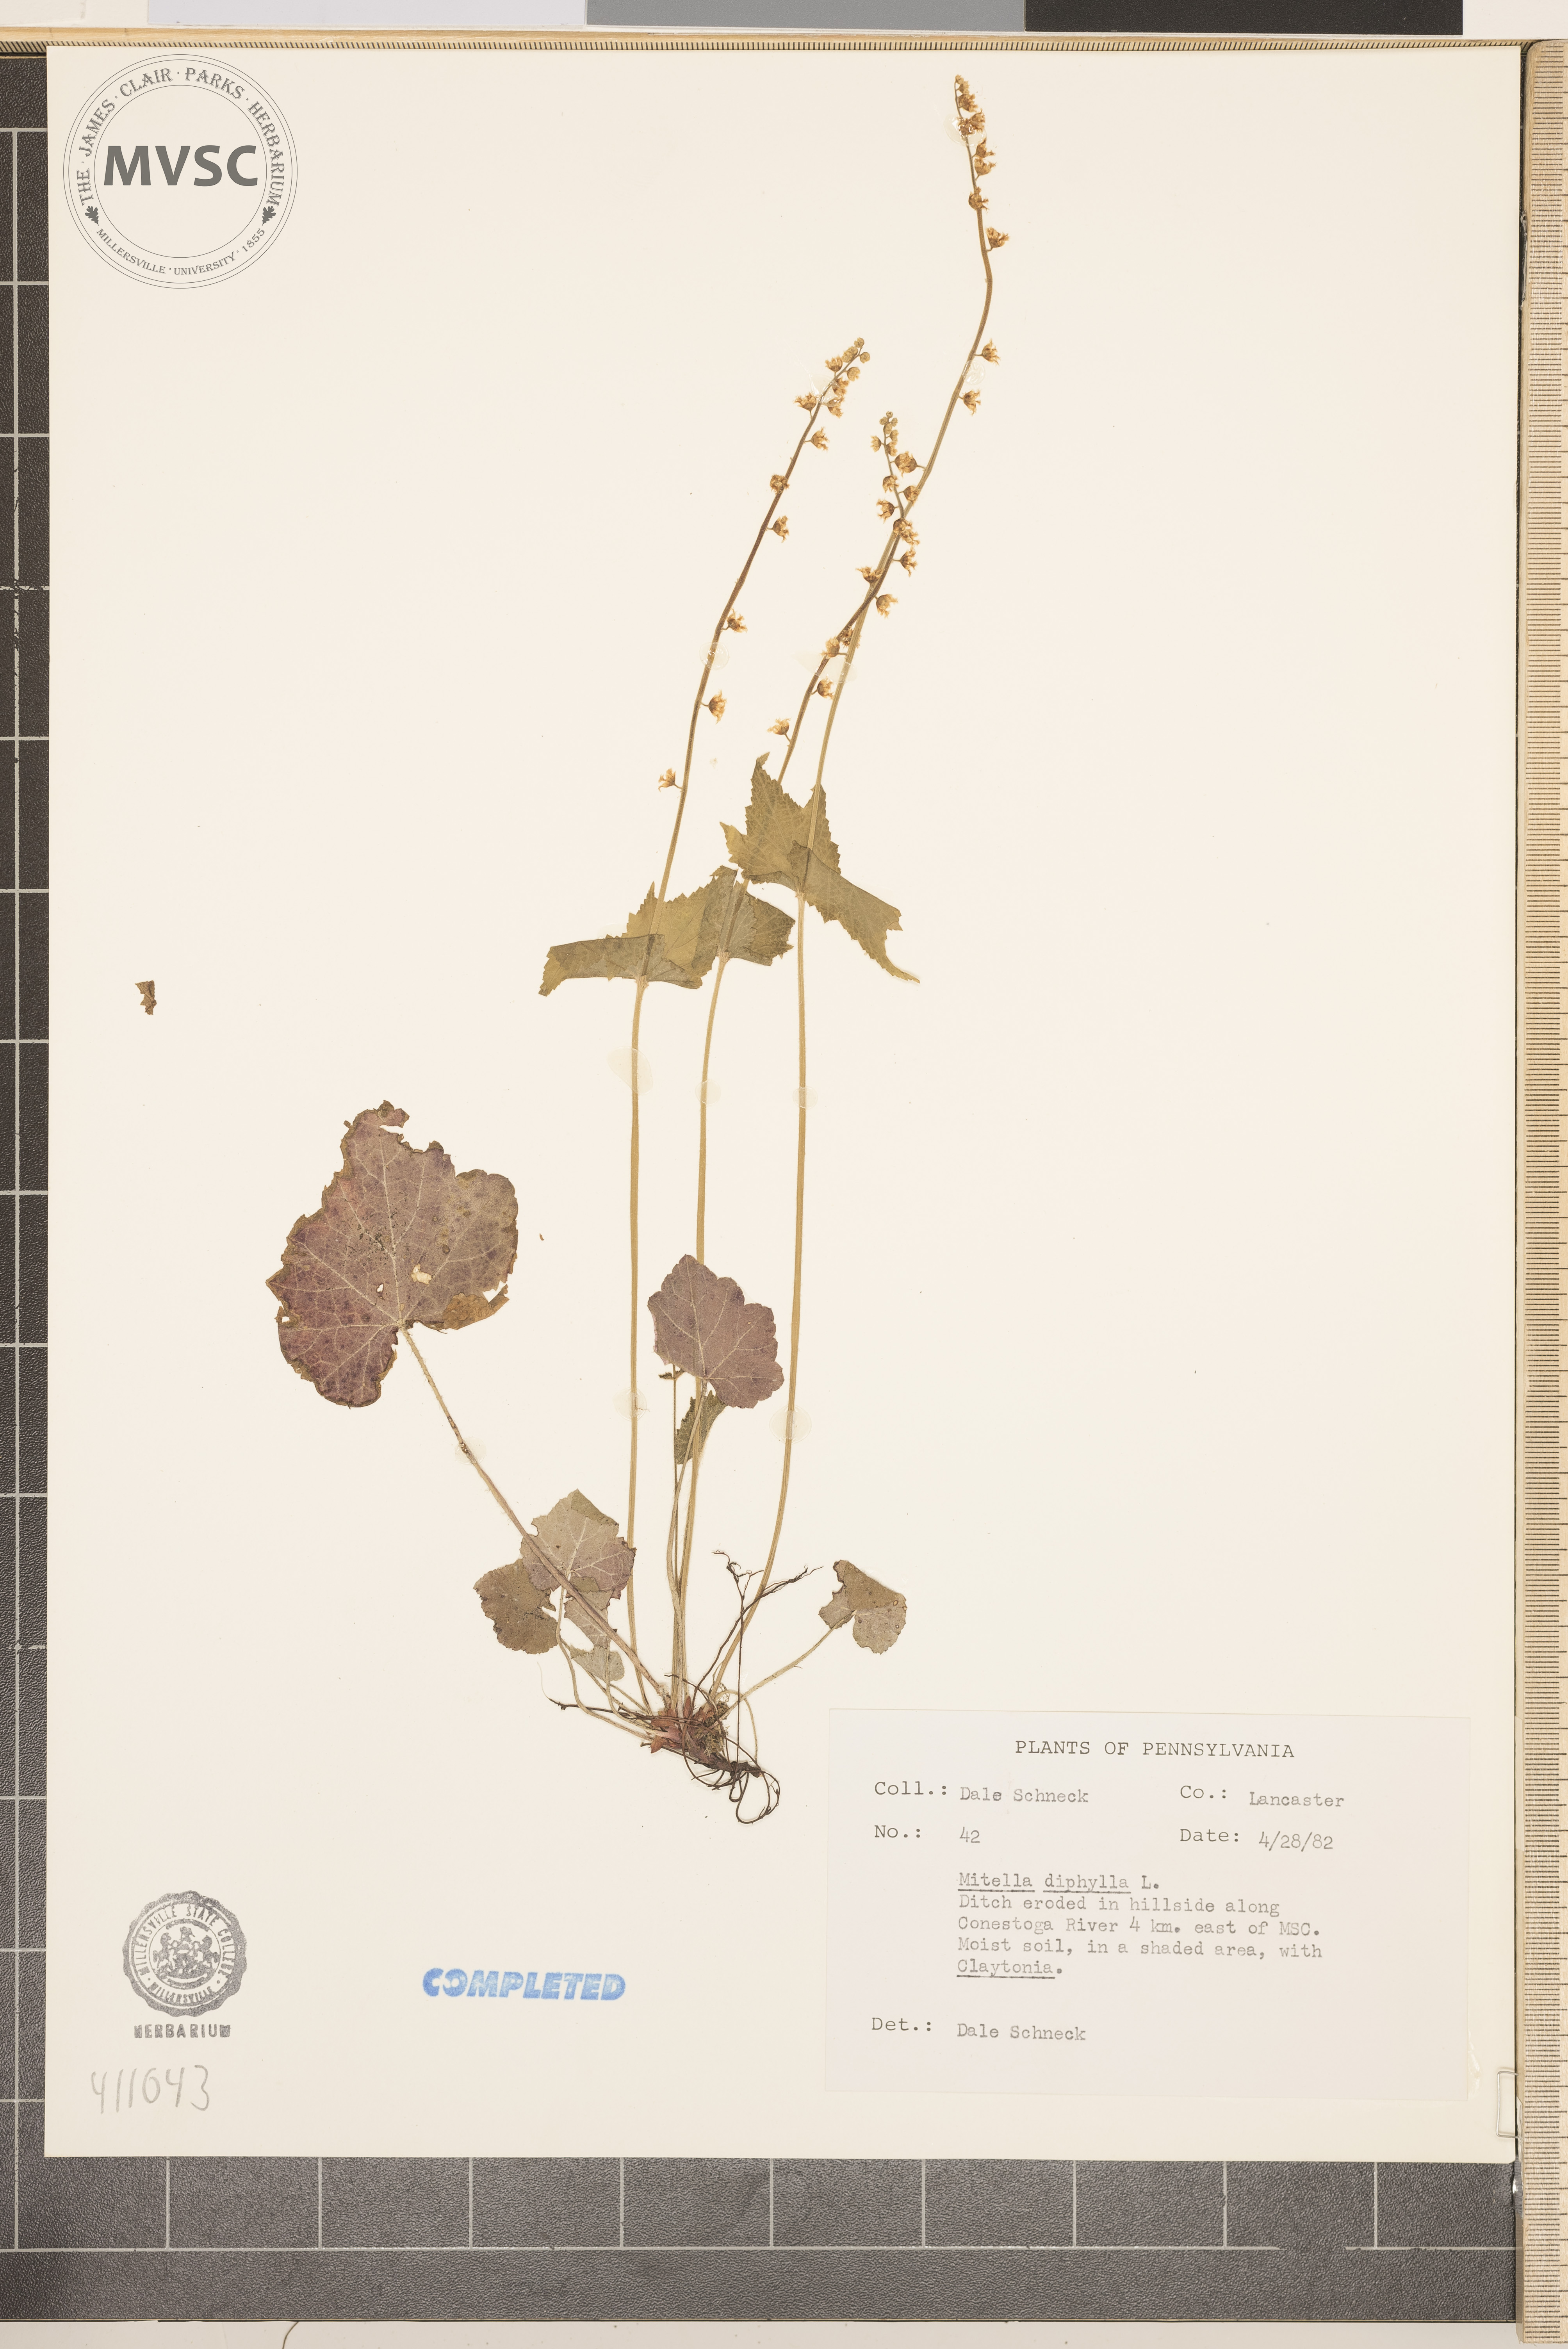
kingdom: Plantae
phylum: Tracheophyta
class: Magnoliopsida
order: Saxifragales
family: Saxifragaceae
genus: Mitella
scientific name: Mitella diphylla
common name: Coolwort
